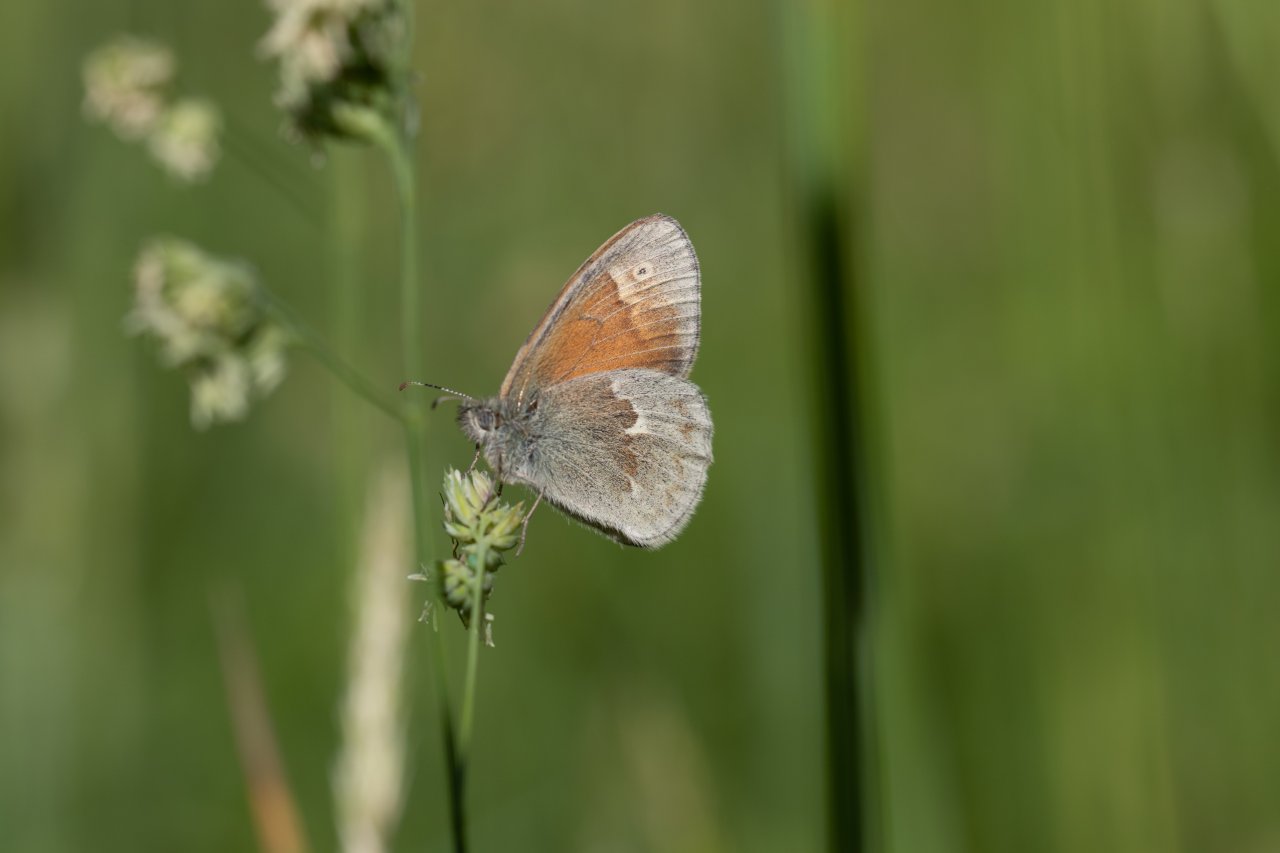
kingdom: Animalia
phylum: Arthropoda
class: Insecta
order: Lepidoptera
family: Nymphalidae
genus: Coenonympha
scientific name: Coenonympha tullia
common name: Large Heath
